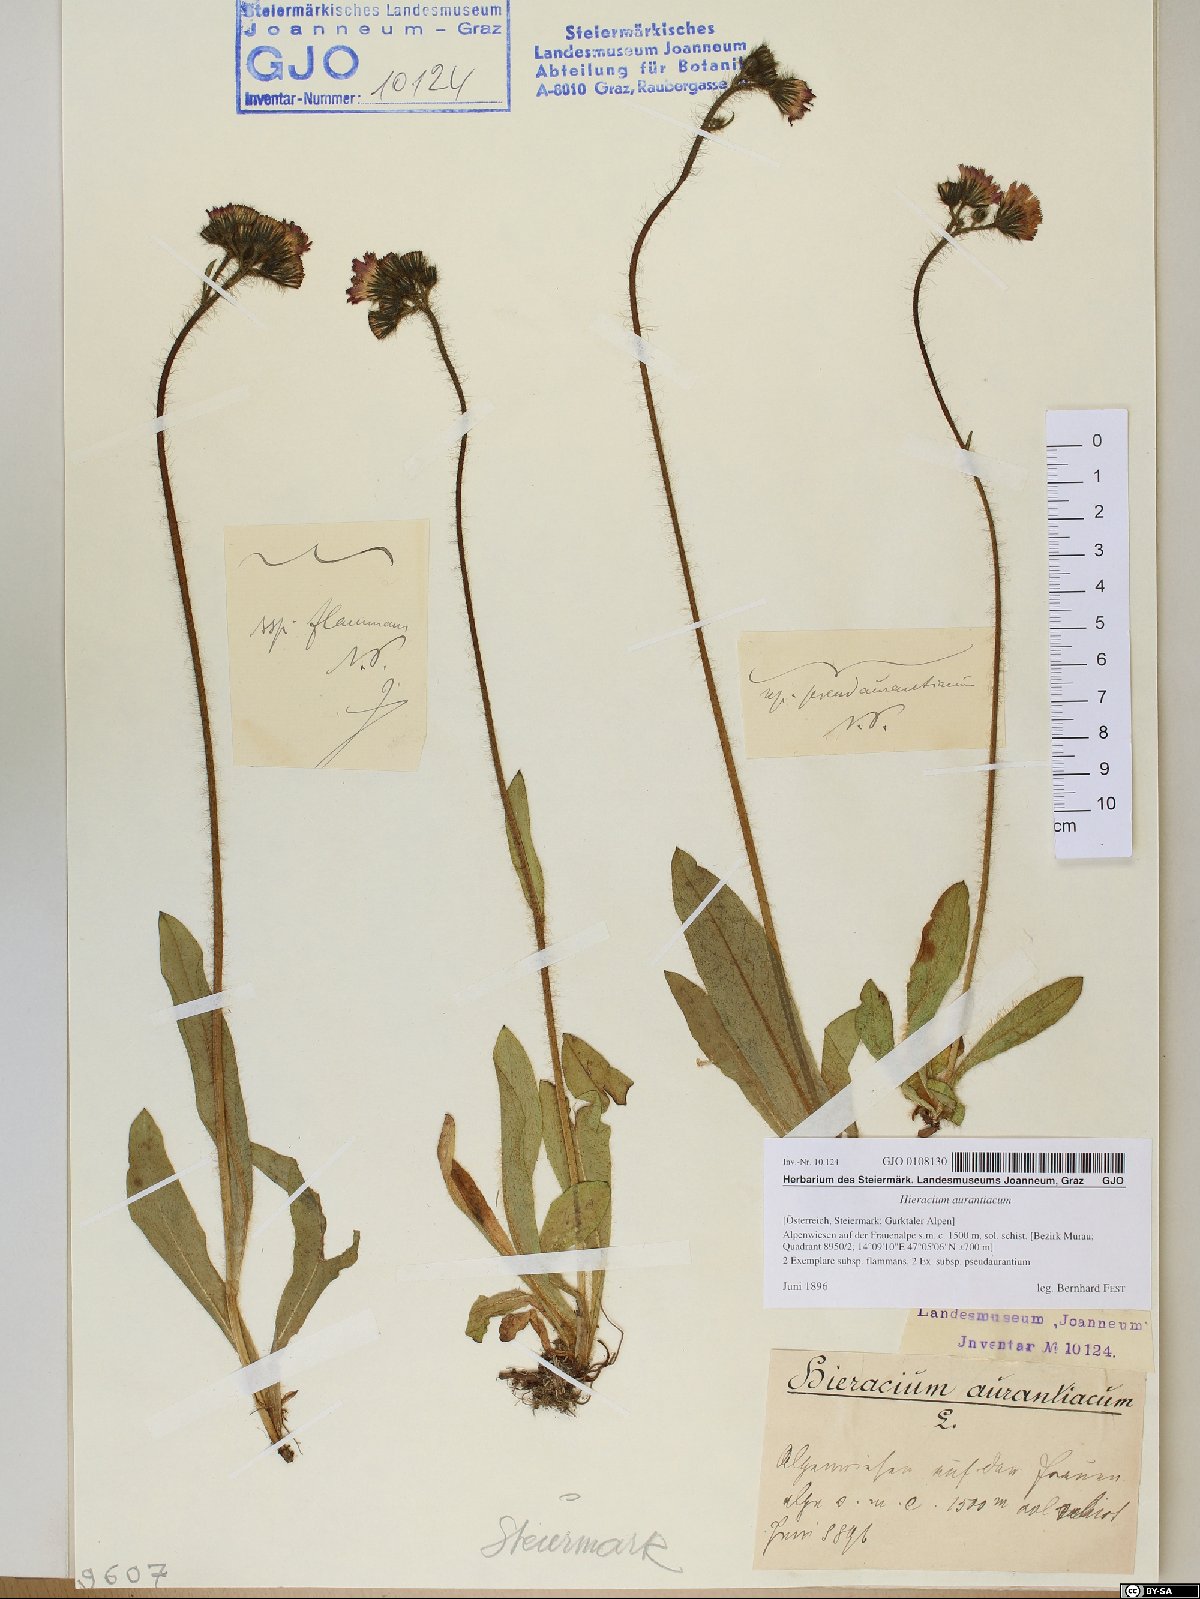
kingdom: Plantae
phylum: Tracheophyta
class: Magnoliopsida
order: Asterales
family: Asteraceae
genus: Pilosella
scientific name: Pilosella aurantiaca
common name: Fox-and-cubs
